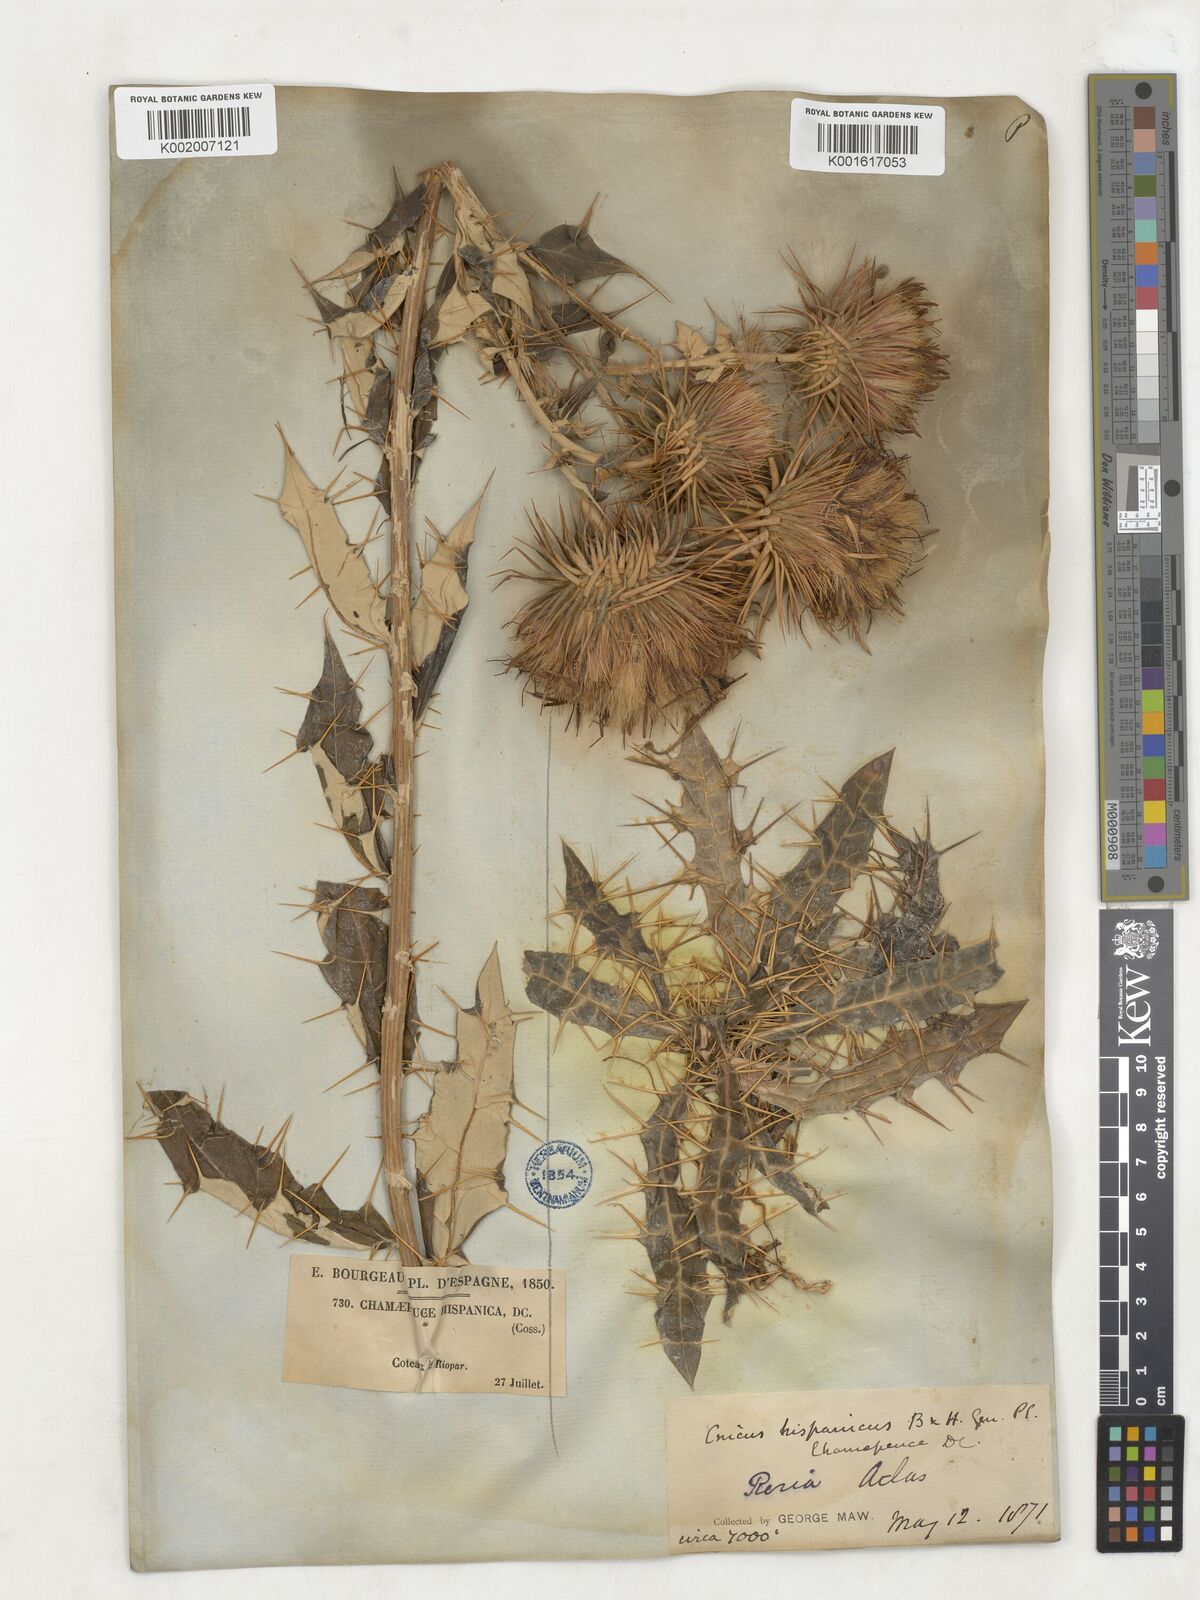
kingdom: Plantae
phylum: Tracheophyta
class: Magnoliopsida
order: Asterales
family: Asteraceae
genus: Ptilostemon
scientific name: Ptilostemon hispanicus
